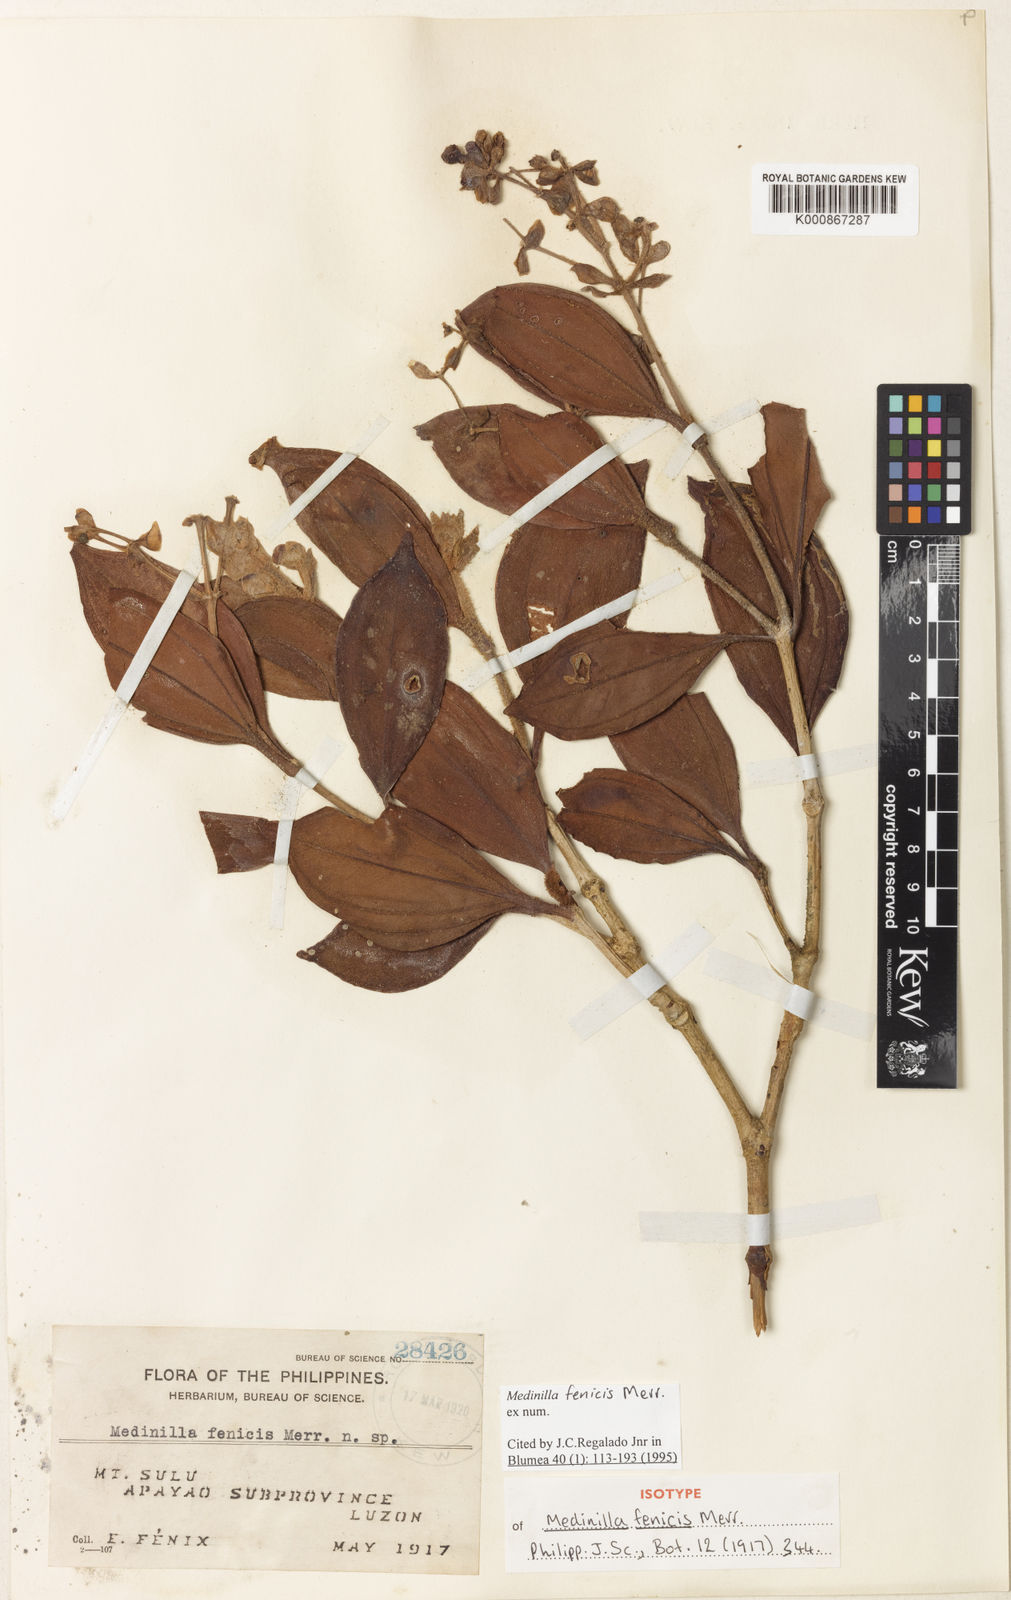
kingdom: Plantae
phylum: Tracheophyta
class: Magnoliopsida
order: Myrtales
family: Melastomataceae
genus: Medinilla
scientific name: Medinilla fenicis
